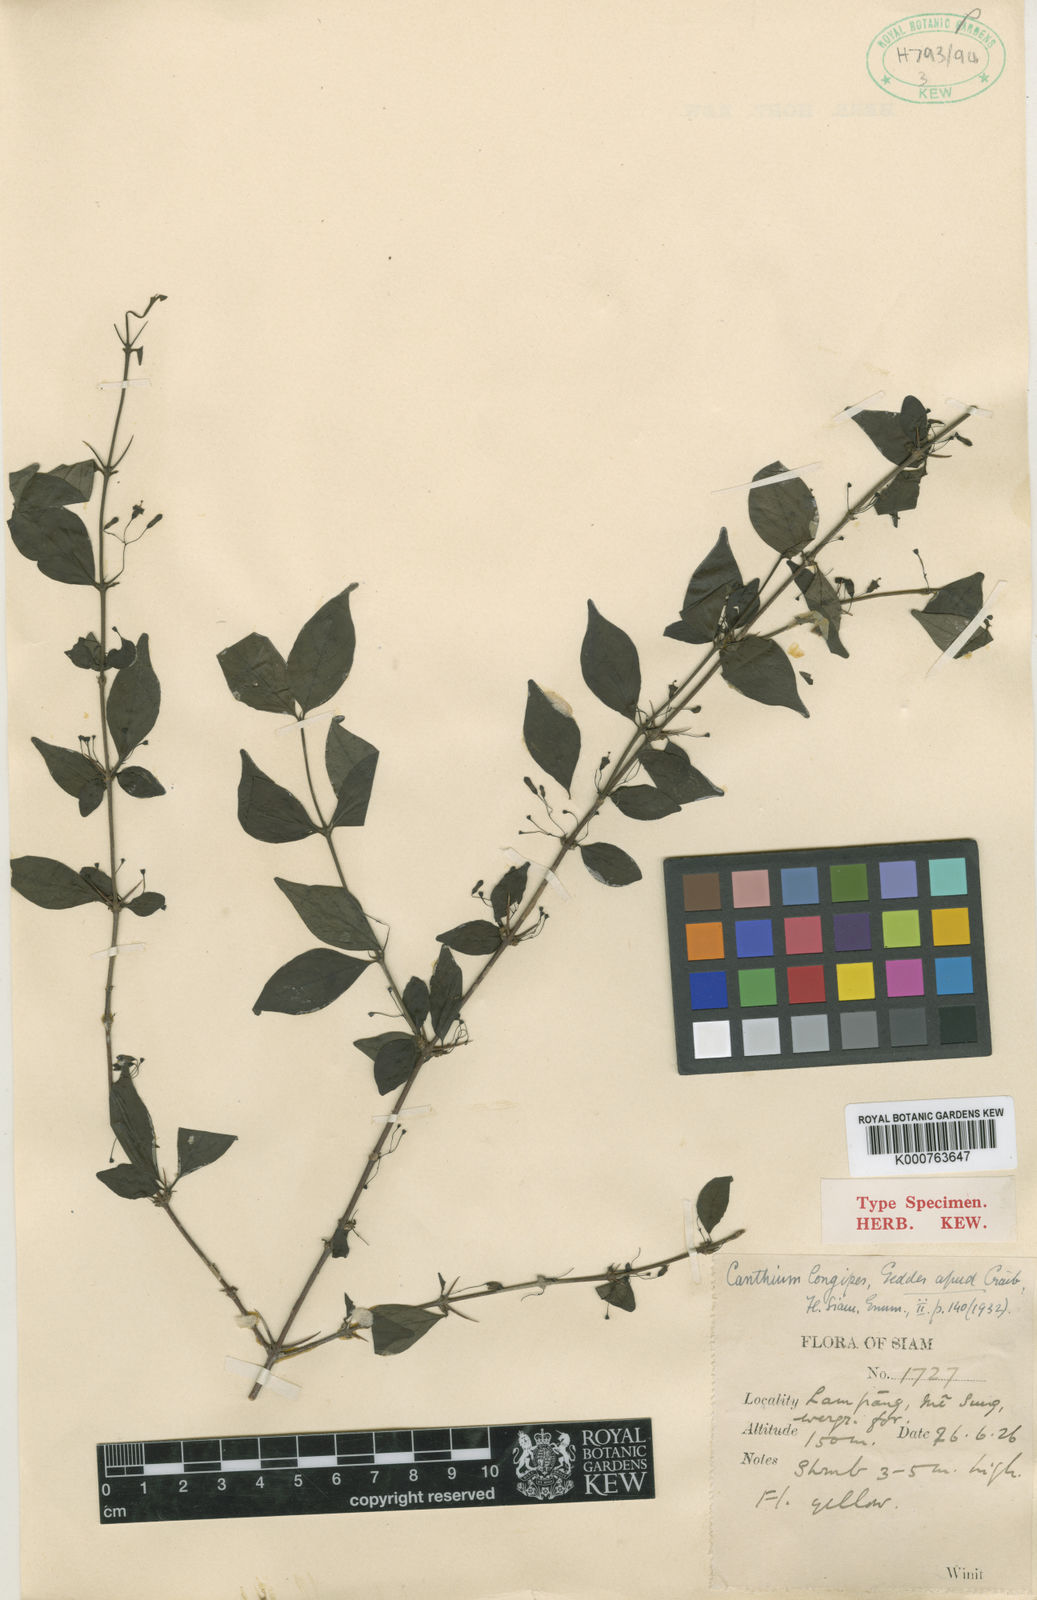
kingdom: Plantae
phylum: Tracheophyta
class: Magnoliopsida
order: Gentianales
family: Rubiaceae
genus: Canthium
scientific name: Canthium longipes
